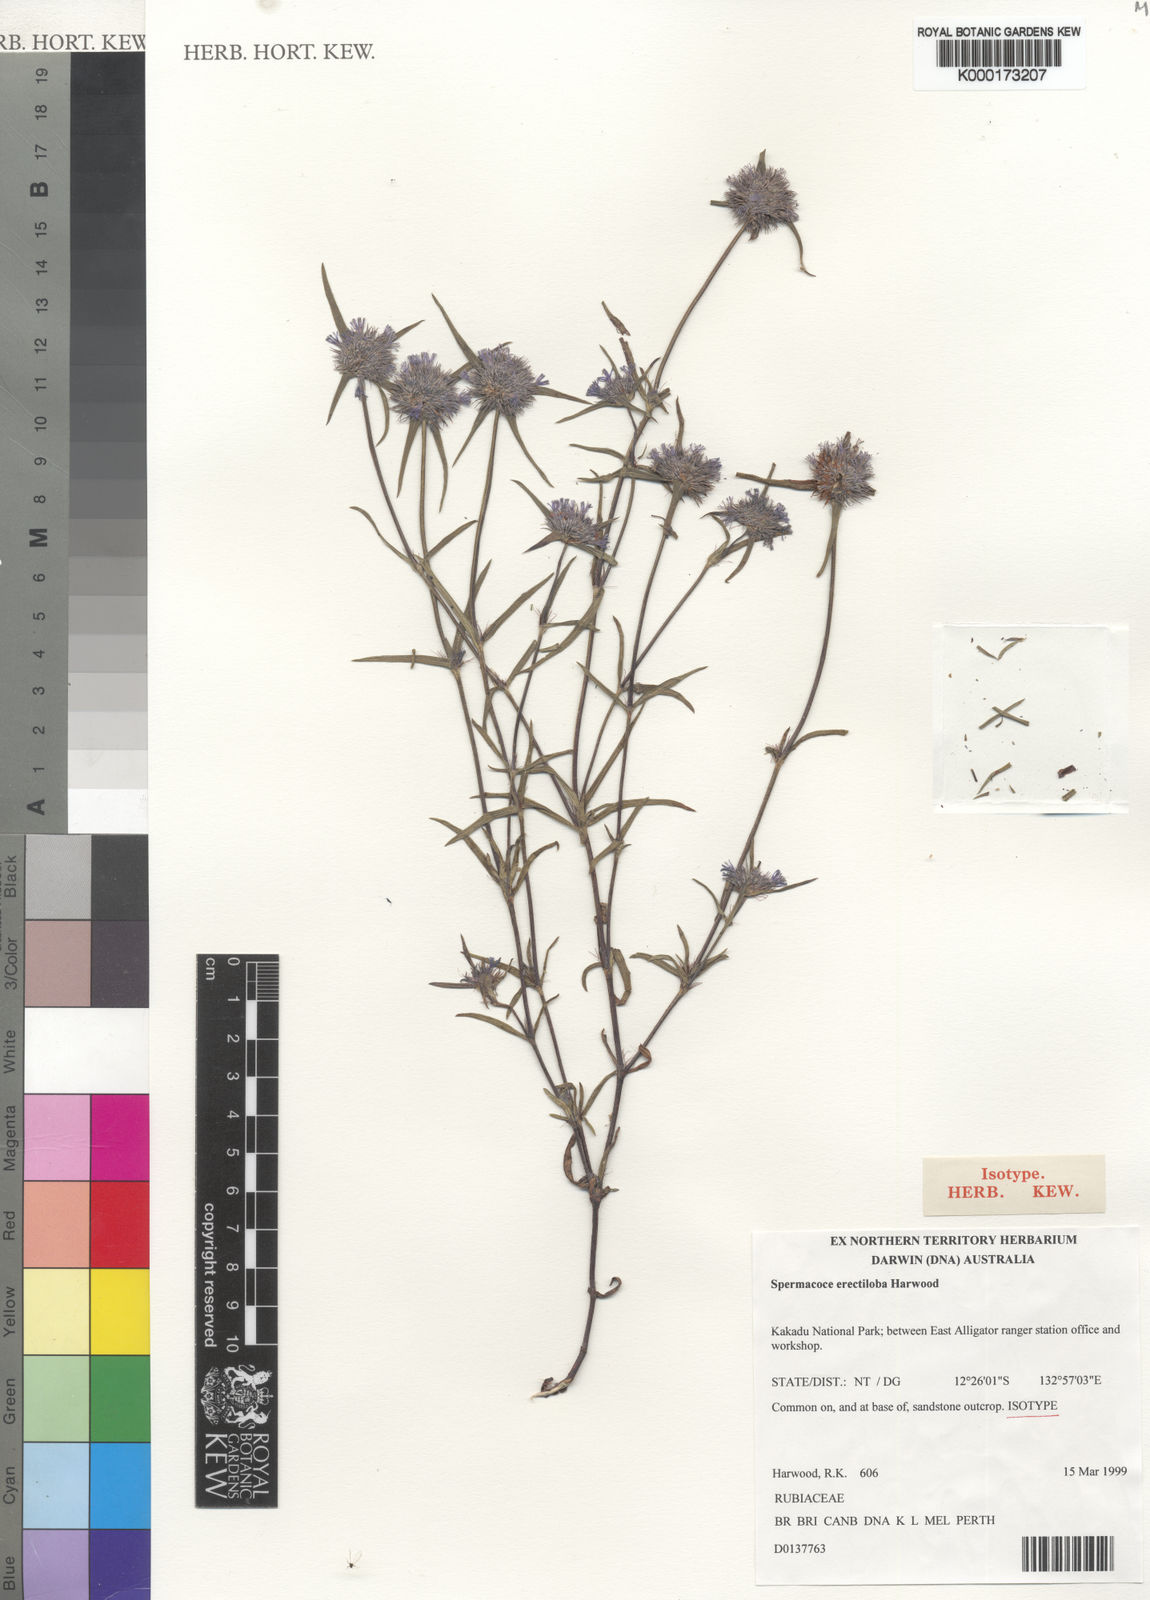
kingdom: Plantae
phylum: Tracheophyta
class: Magnoliopsida
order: Gentianales
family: Rubiaceae
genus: Spermacoce
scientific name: Spermacoce erectiloba
